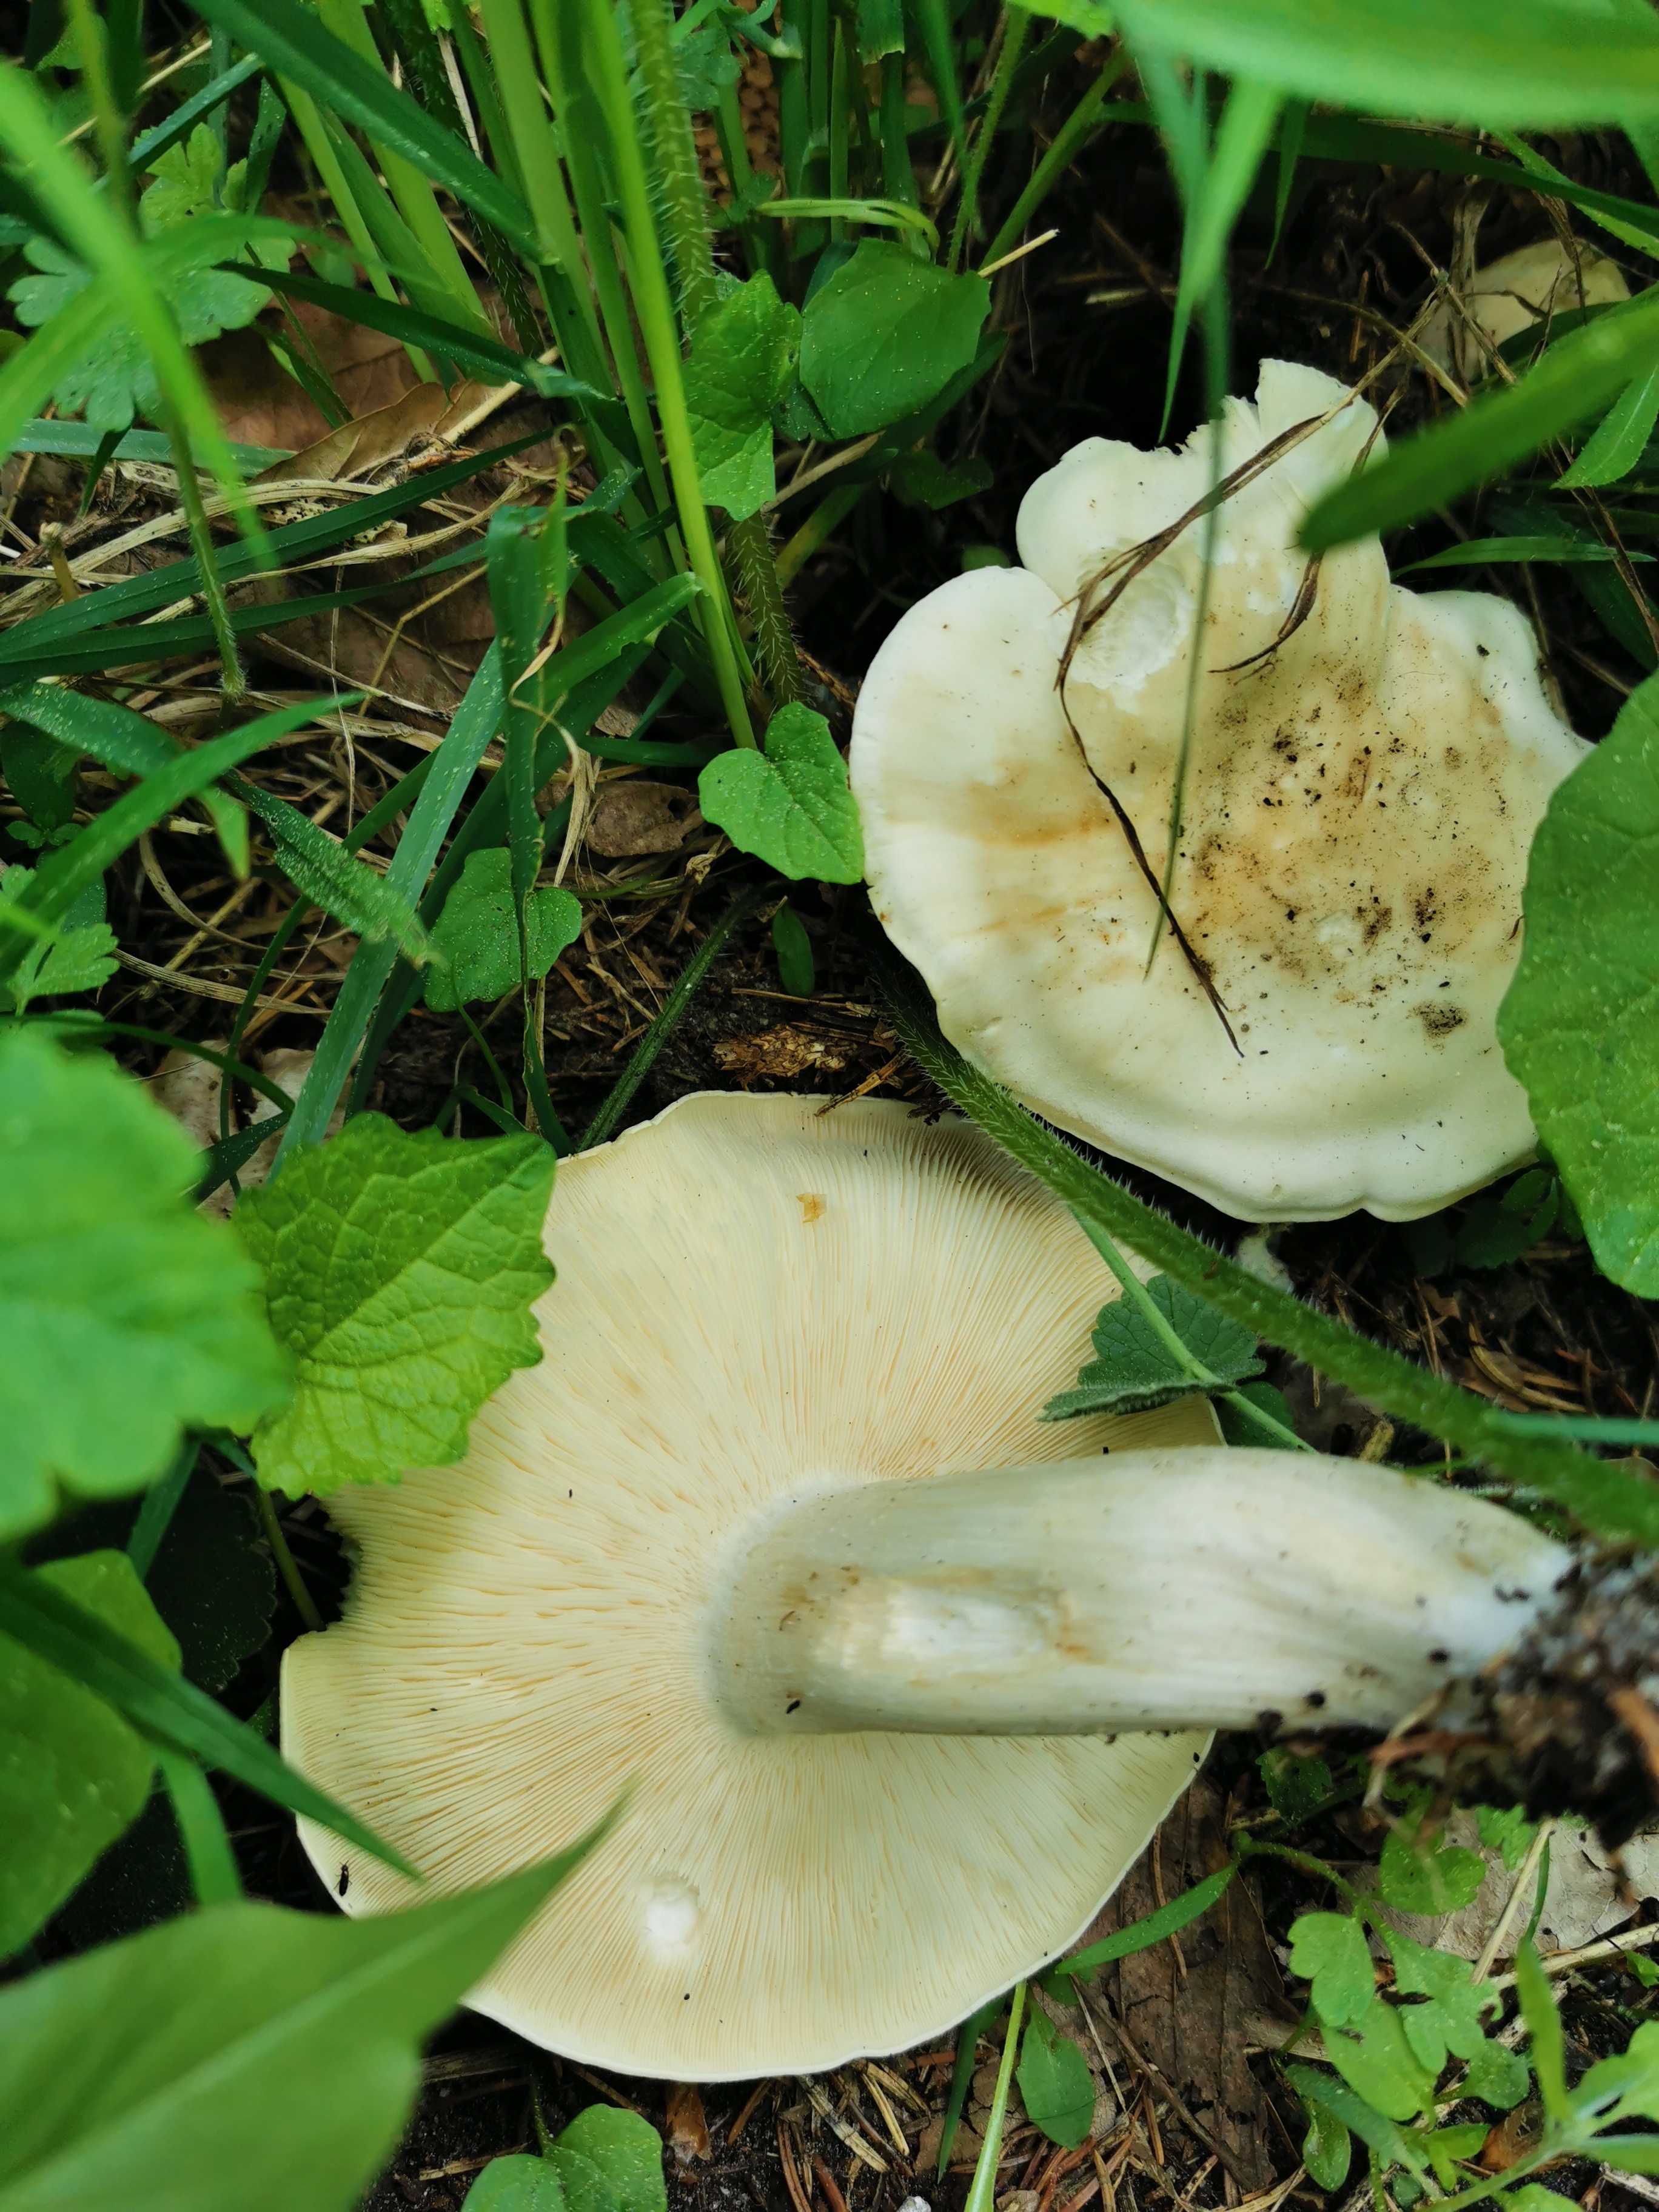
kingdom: Fungi
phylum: Basidiomycota
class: Agaricomycetes
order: Agaricales
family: Lyophyllaceae
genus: Calocybe
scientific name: Calocybe gambosa
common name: vårmusseron
